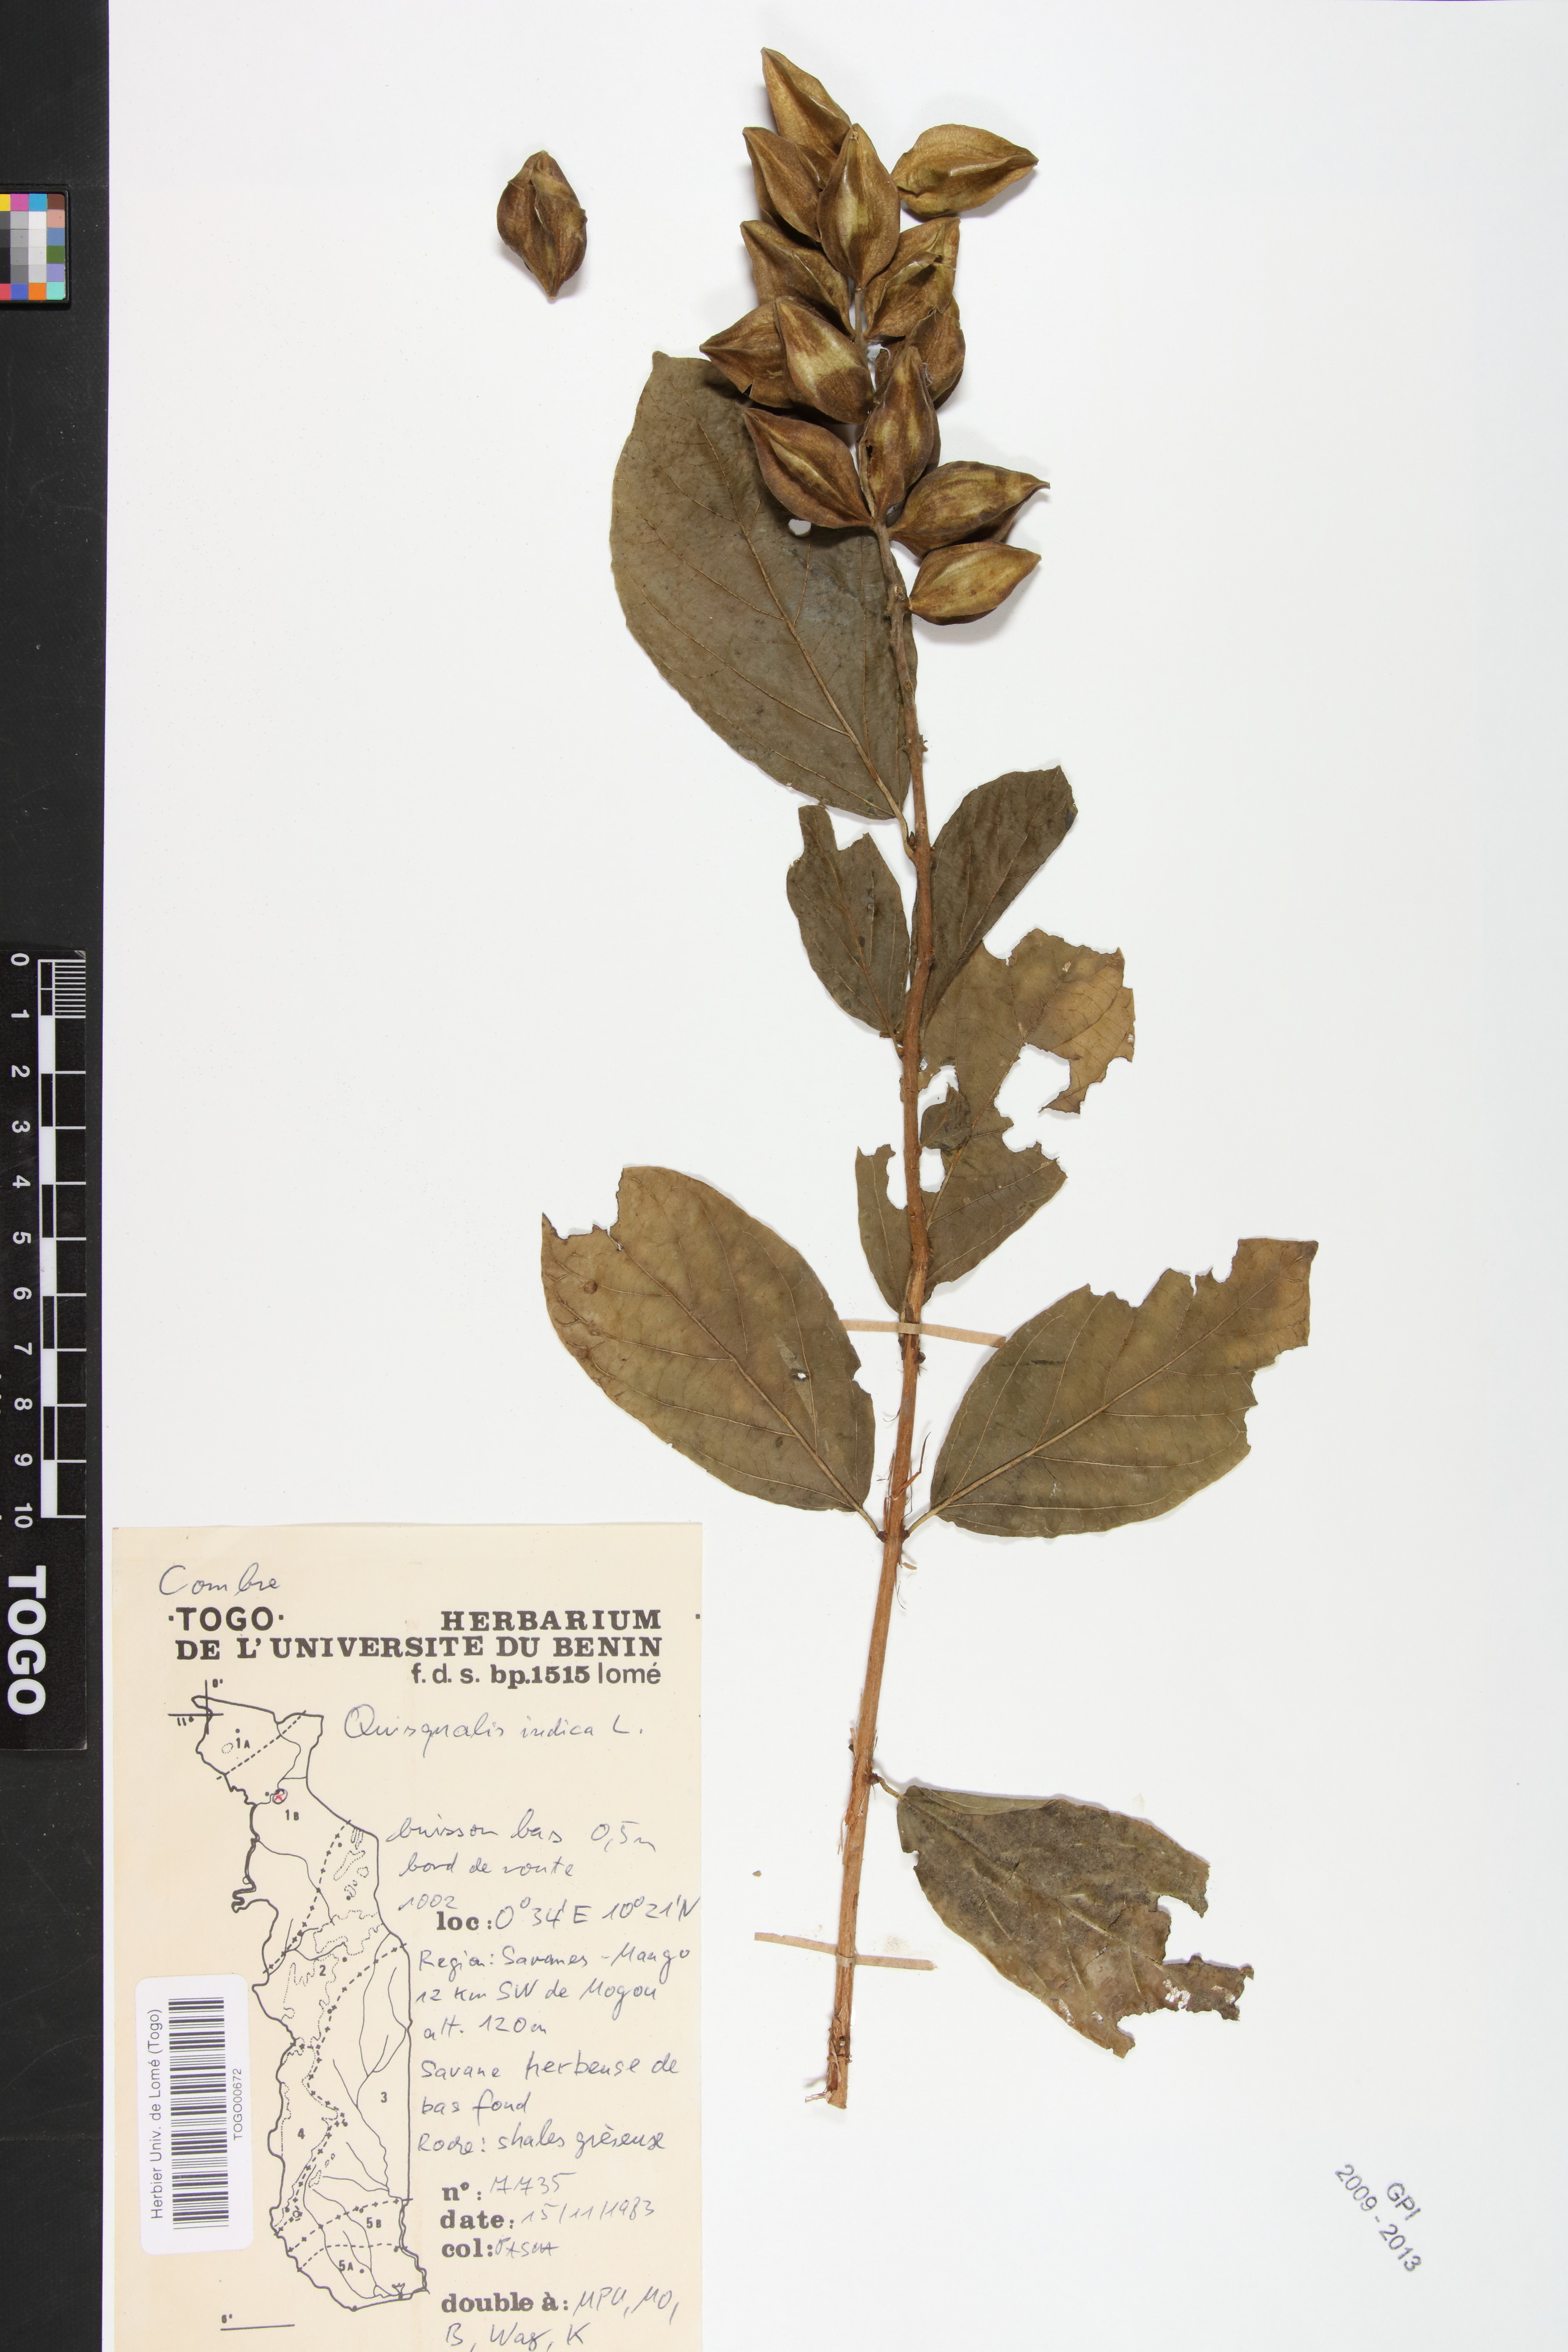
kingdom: Plantae
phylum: Tracheophyta
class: Magnoliopsida
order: Myrtales
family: Combretaceae
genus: Combretum
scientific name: Combretum indicum
